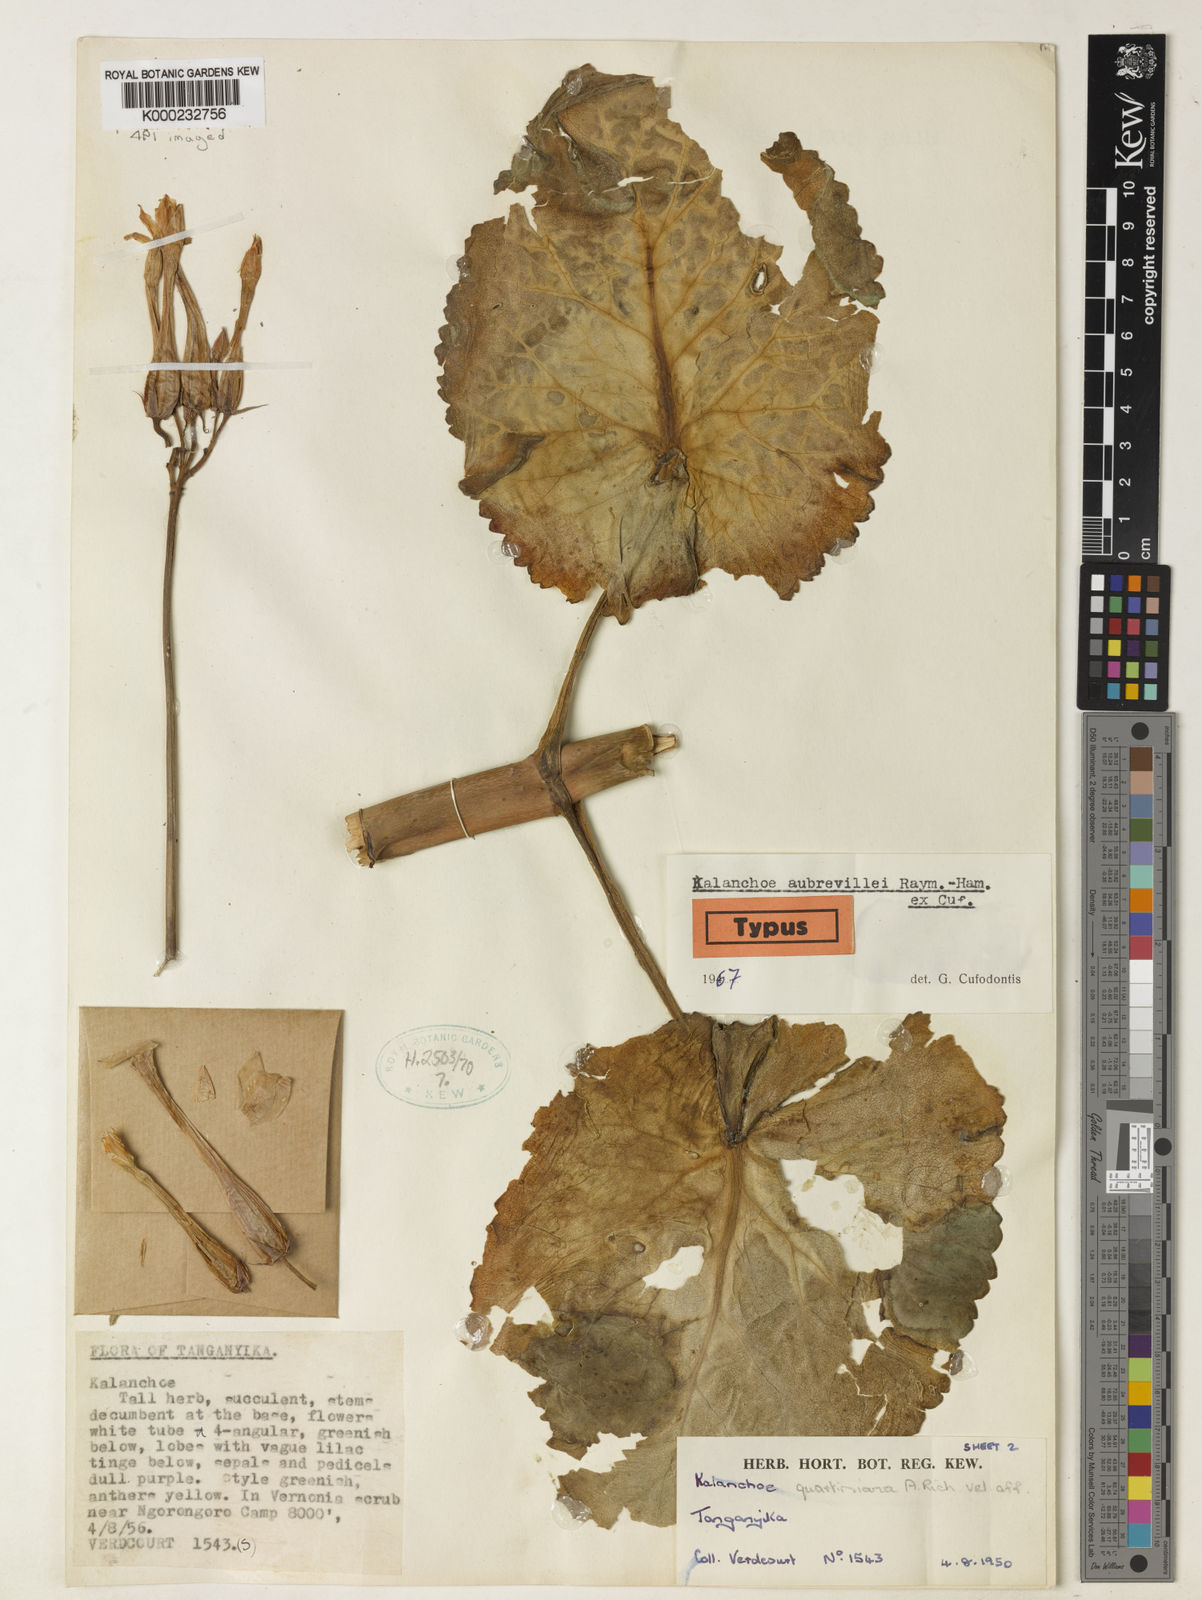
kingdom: Plantae
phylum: Tracheophyta
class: Magnoliopsida
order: Saxifragales
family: Crassulaceae
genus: Kalanchoe
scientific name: Kalanchoe aubrevillei
